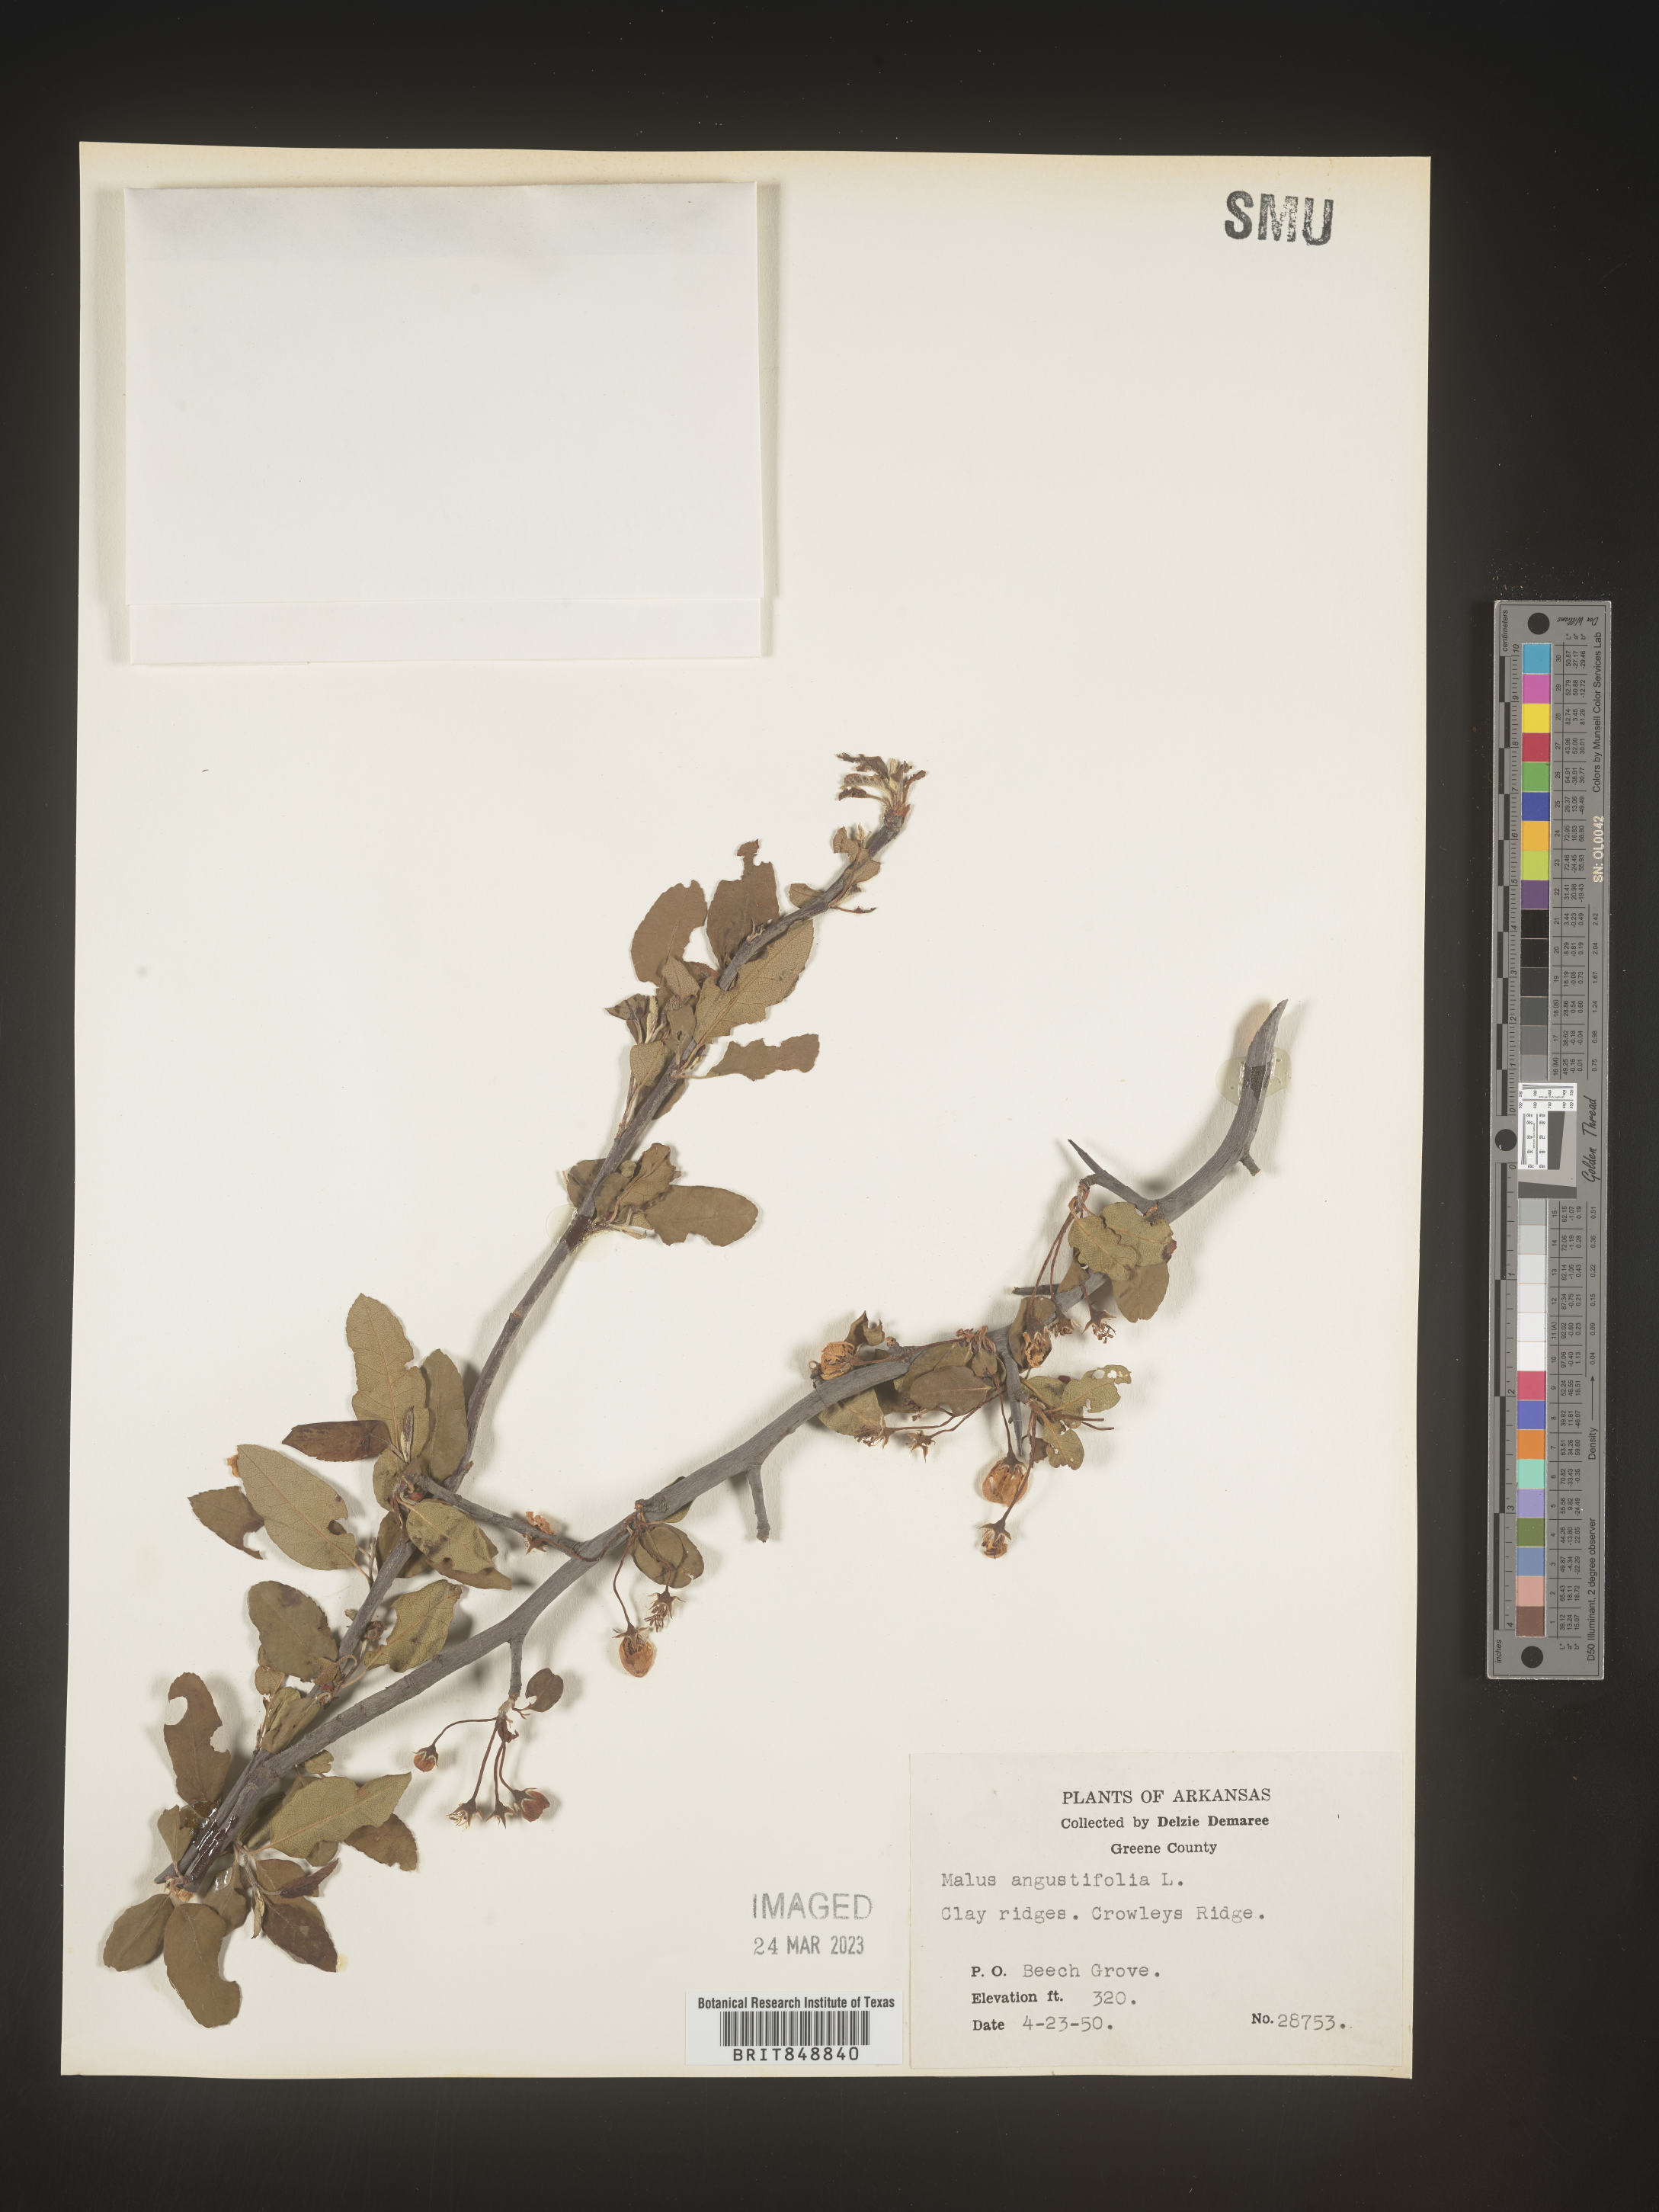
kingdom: Plantae
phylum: Tracheophyta
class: Magnoliopsida
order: Rosales
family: Rosaceae
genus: Malus
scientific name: Malus angustifolia
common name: Southern crab apple
